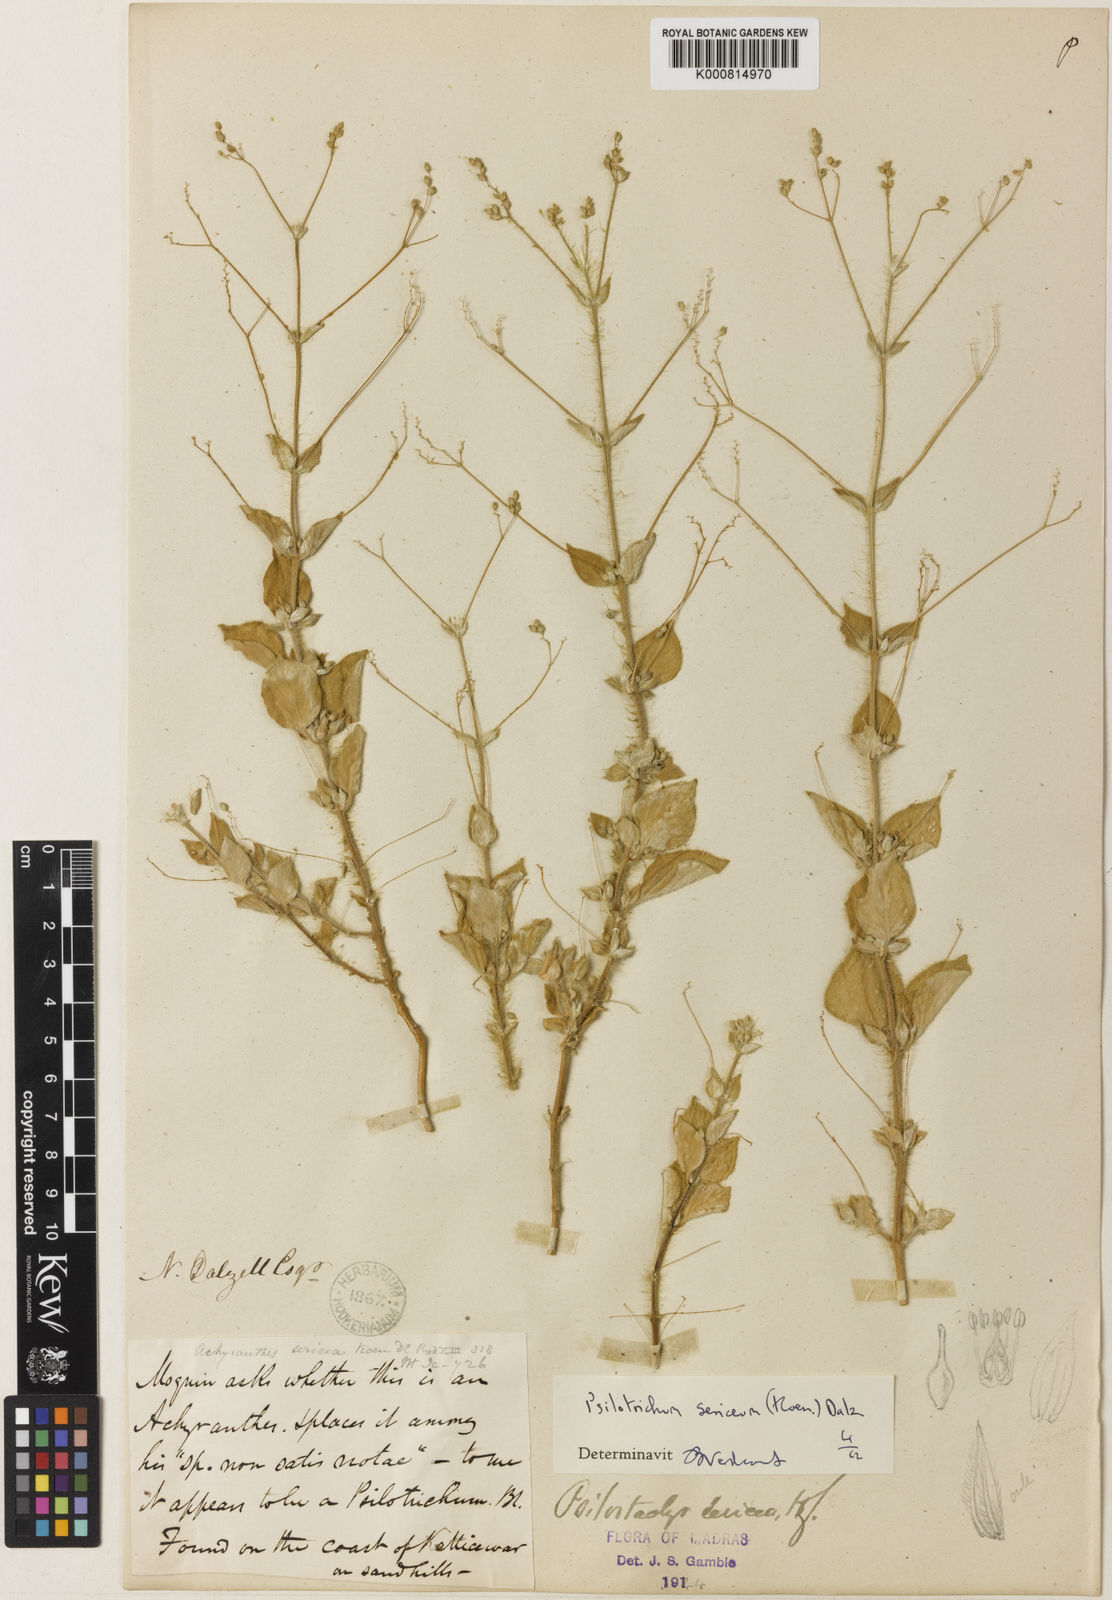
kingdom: Plantae
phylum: Tracheophyta
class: Magnoliopsida
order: Caryophyllales
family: Amaranthaceae
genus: Psilotrichum
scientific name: Psilotrichum
